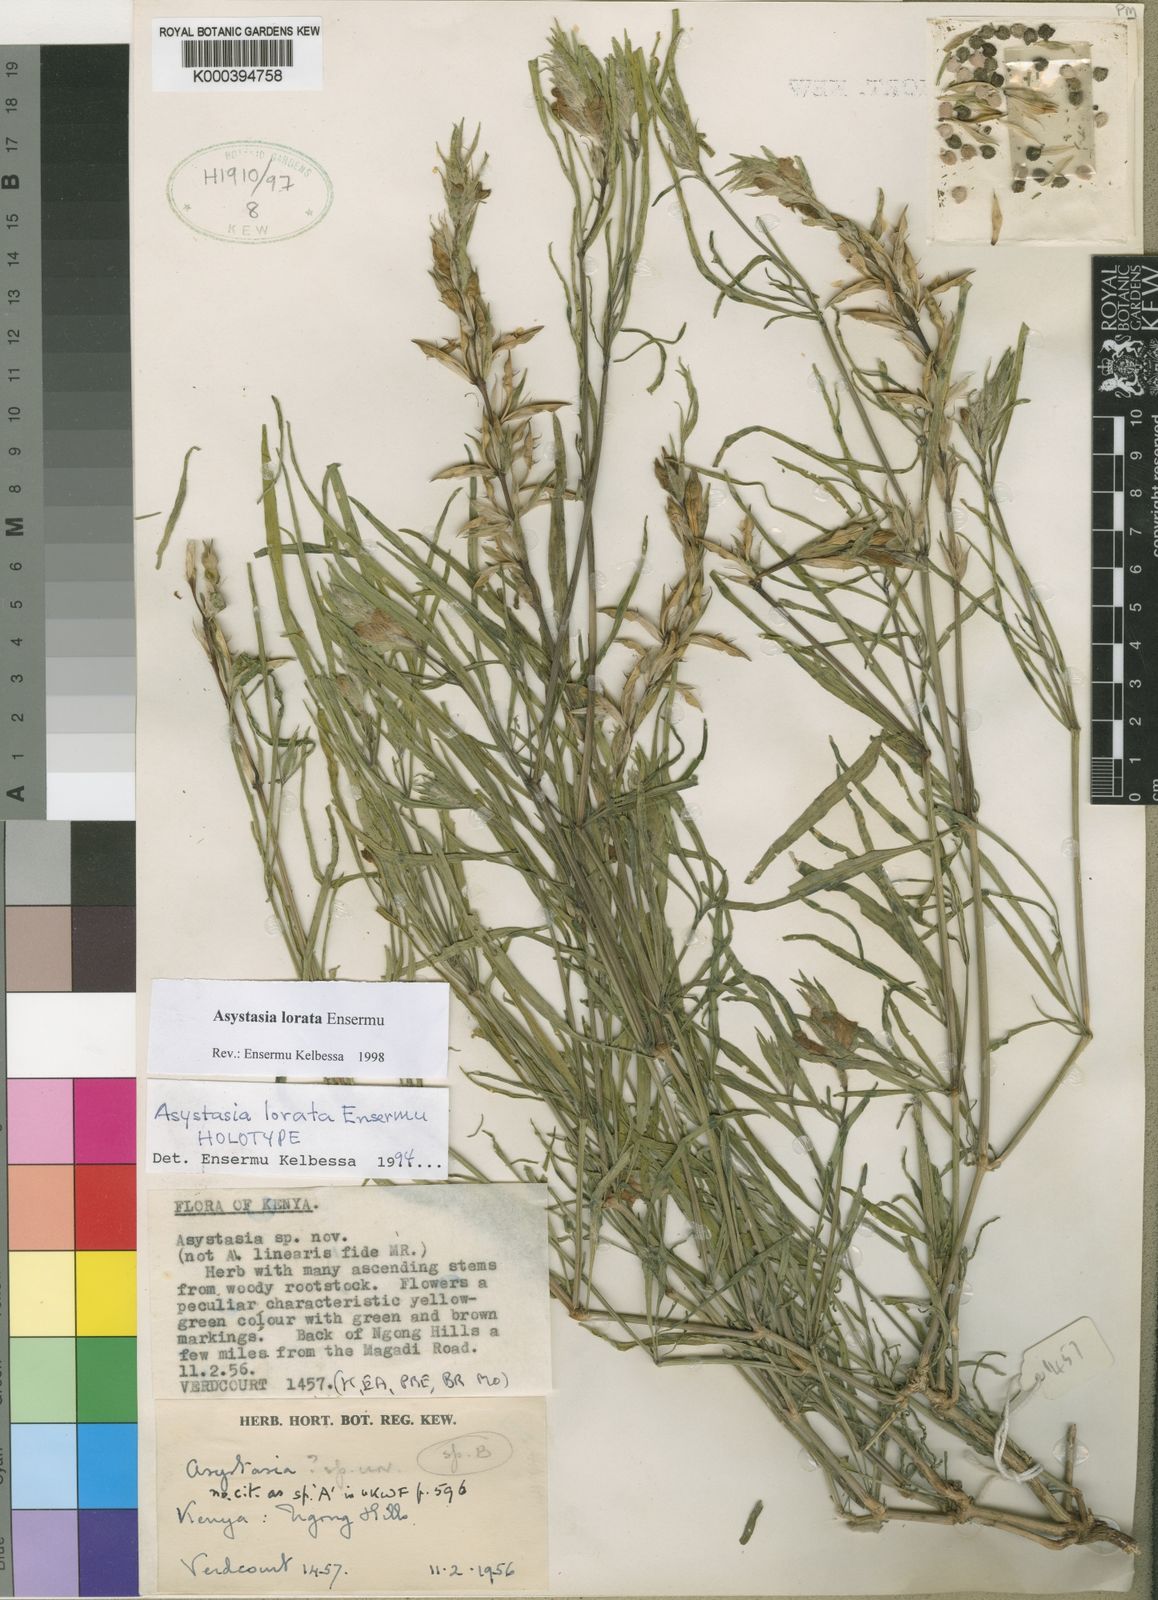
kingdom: Plantae
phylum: Tracheophyta
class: Magnoliopsida
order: Lamiales
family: Acanthaceae
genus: Asystasia
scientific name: Asystasia lorata
